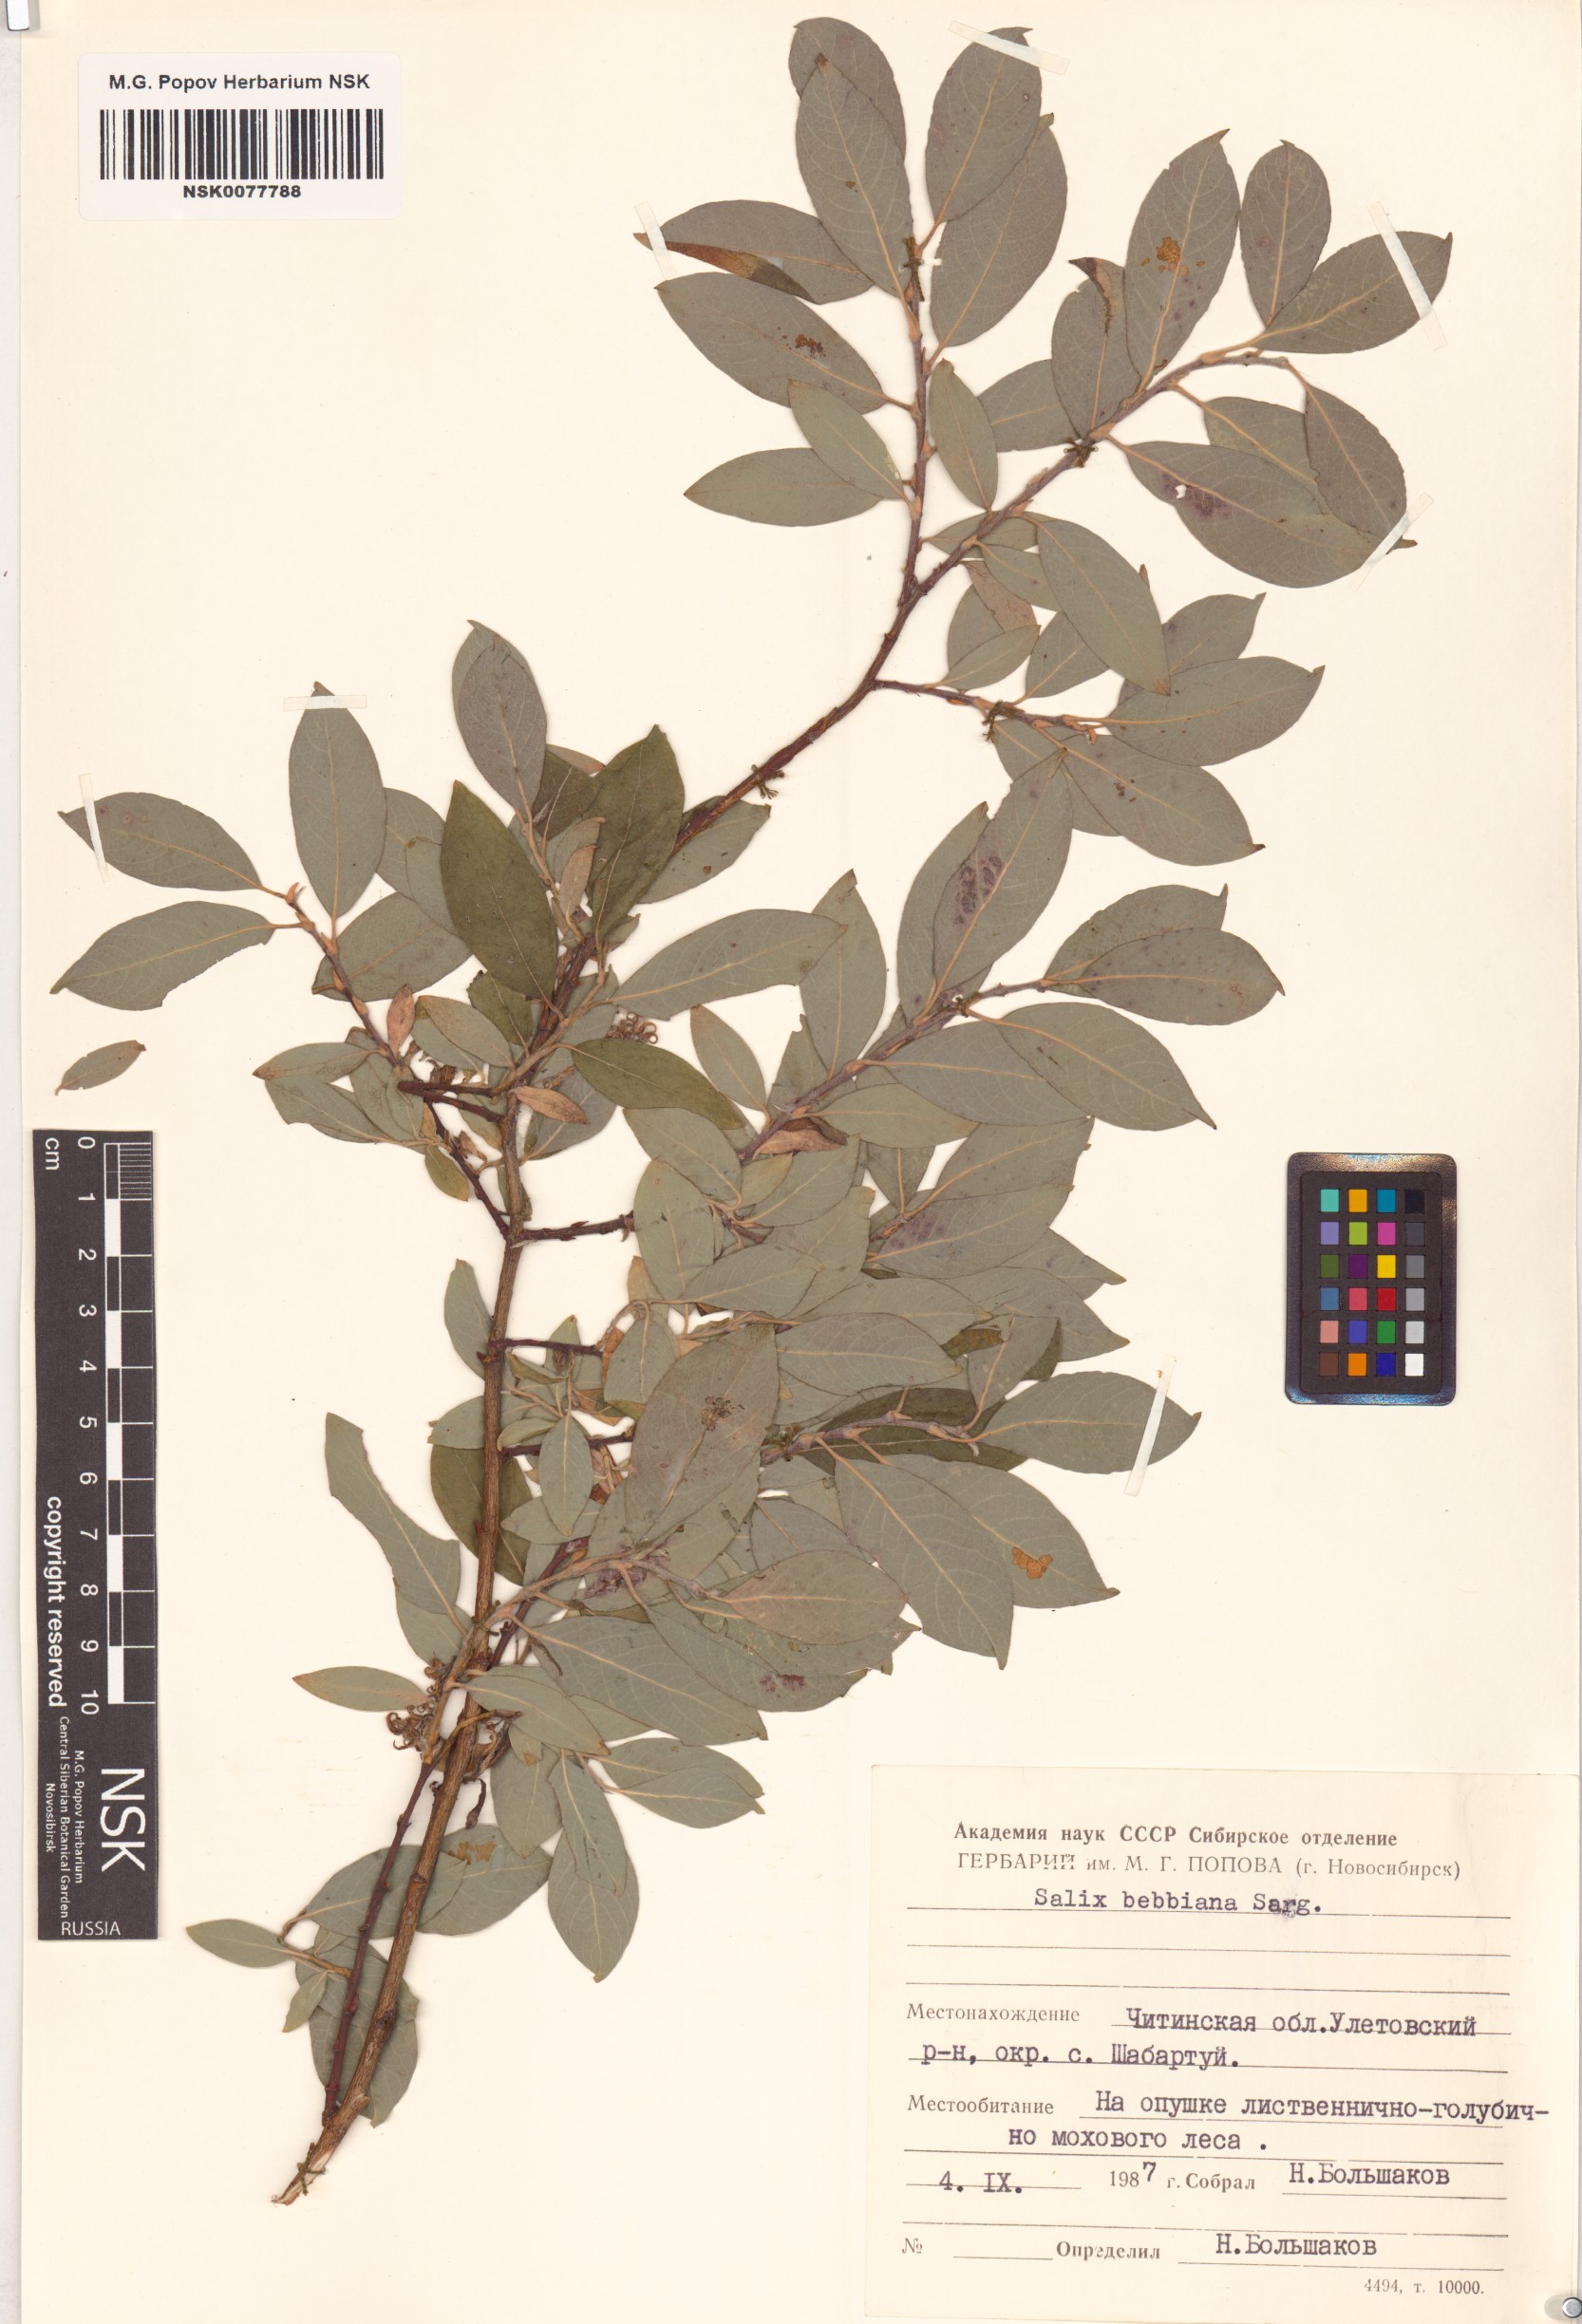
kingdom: Plantae
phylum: Tracheophyta
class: Magnoliopsida
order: Malpighiales
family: Salicaceae
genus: Salix
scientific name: Salix bebbiana
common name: Bebb's willow
